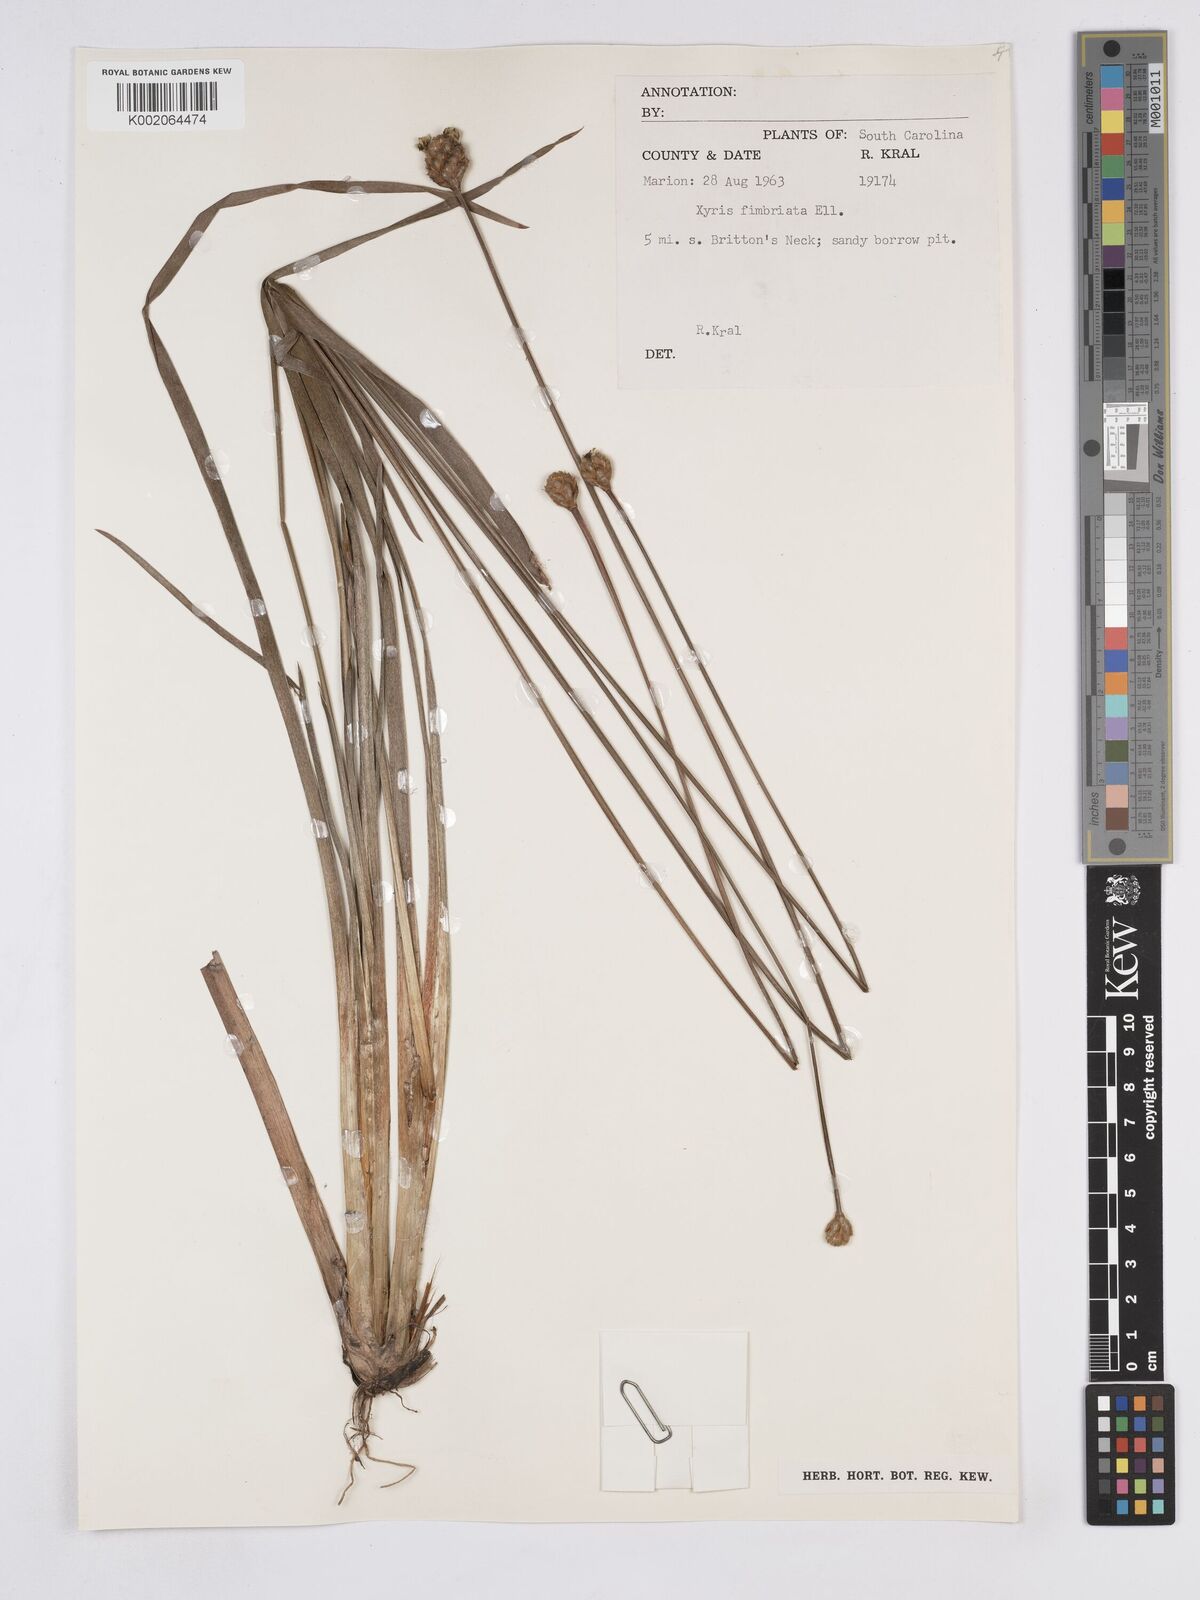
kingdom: Plantae
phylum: Tracheophyta
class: Liliopsida
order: Poales
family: Xyridaceae
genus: Xyris
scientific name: Xyris fimbriata
